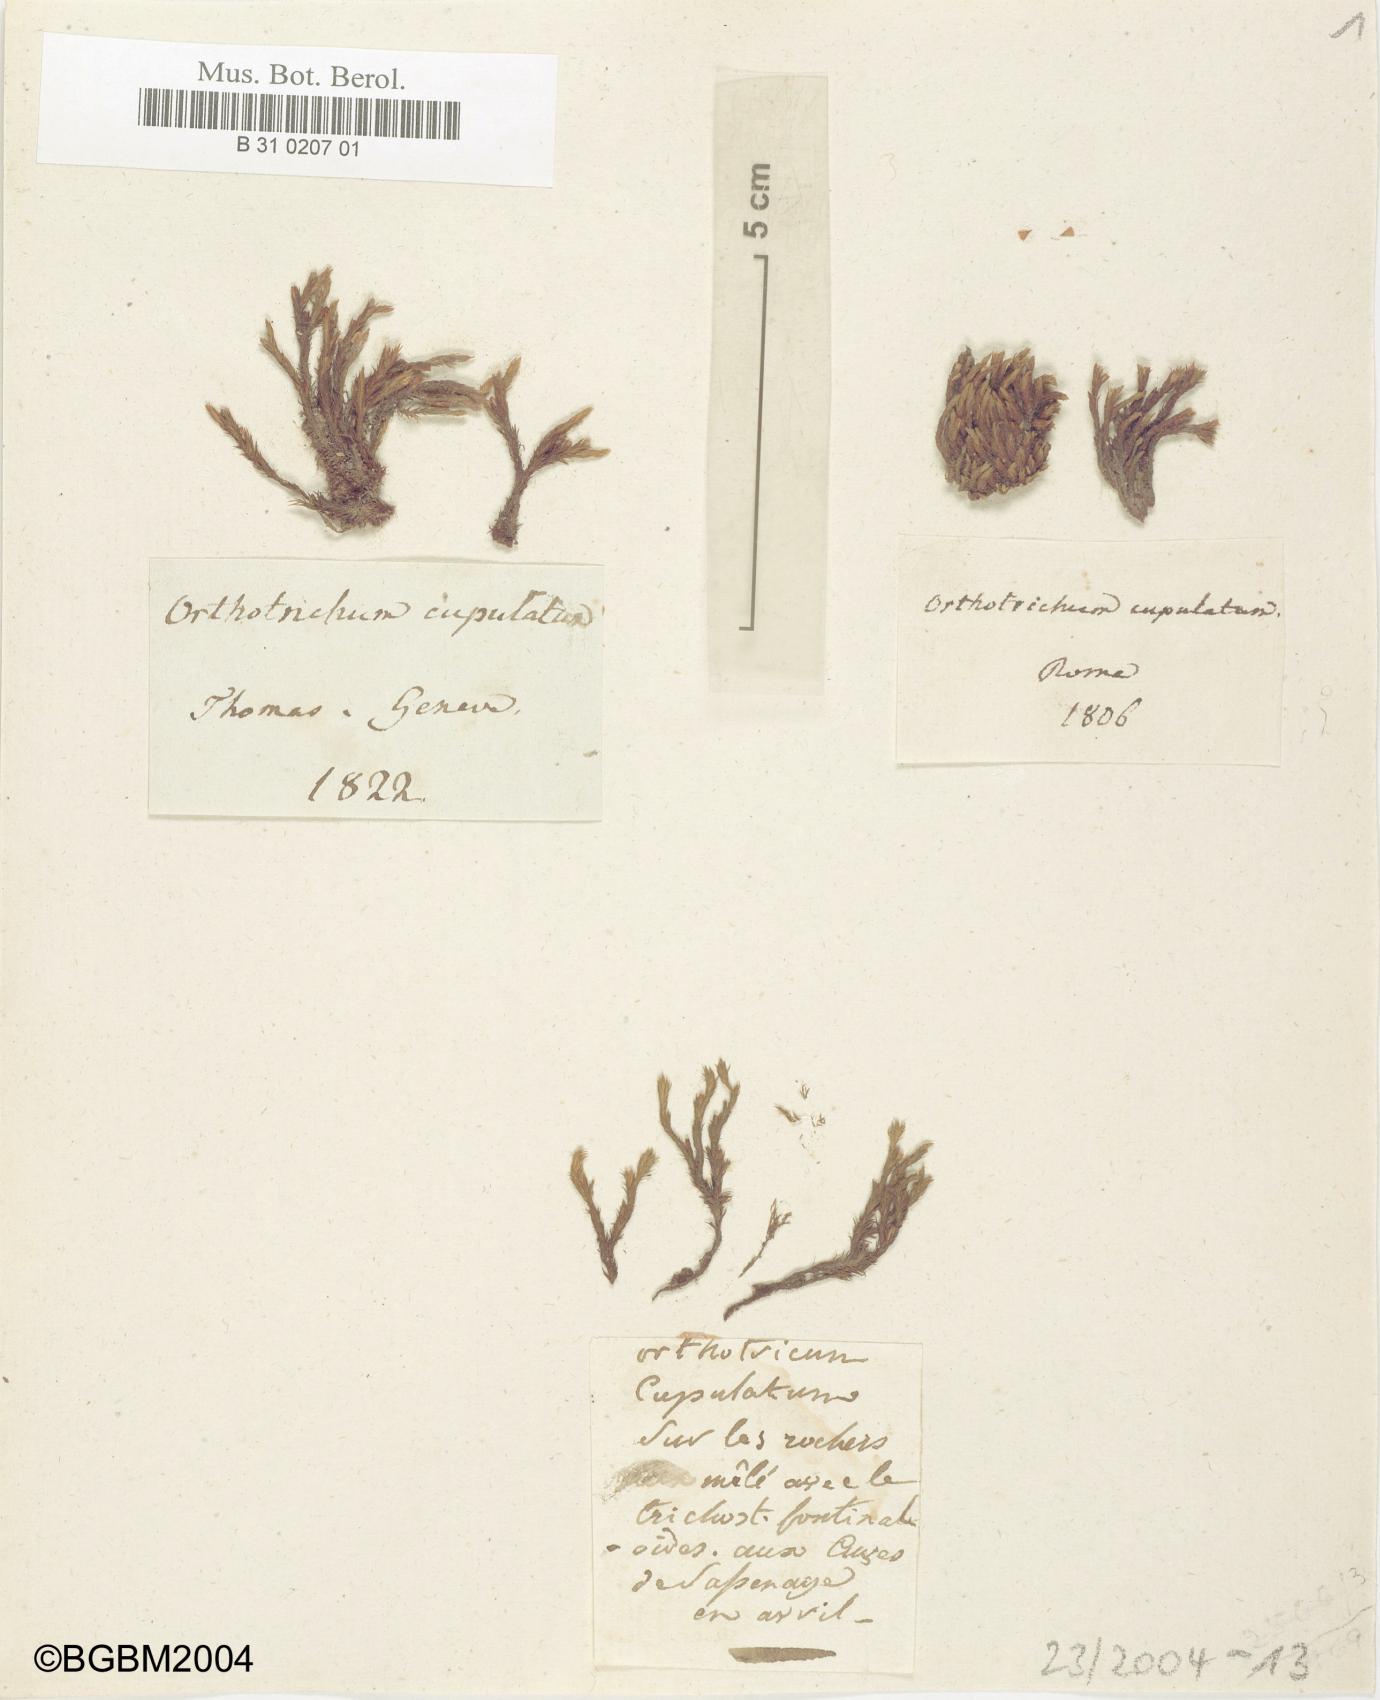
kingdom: Plantae
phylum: Bryophyta
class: Bryopsida
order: Orthotrichales
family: Orthotrichaceae
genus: Orthotrichum
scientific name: Orthotrichum cupulatum
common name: Hooded bristle-moss
